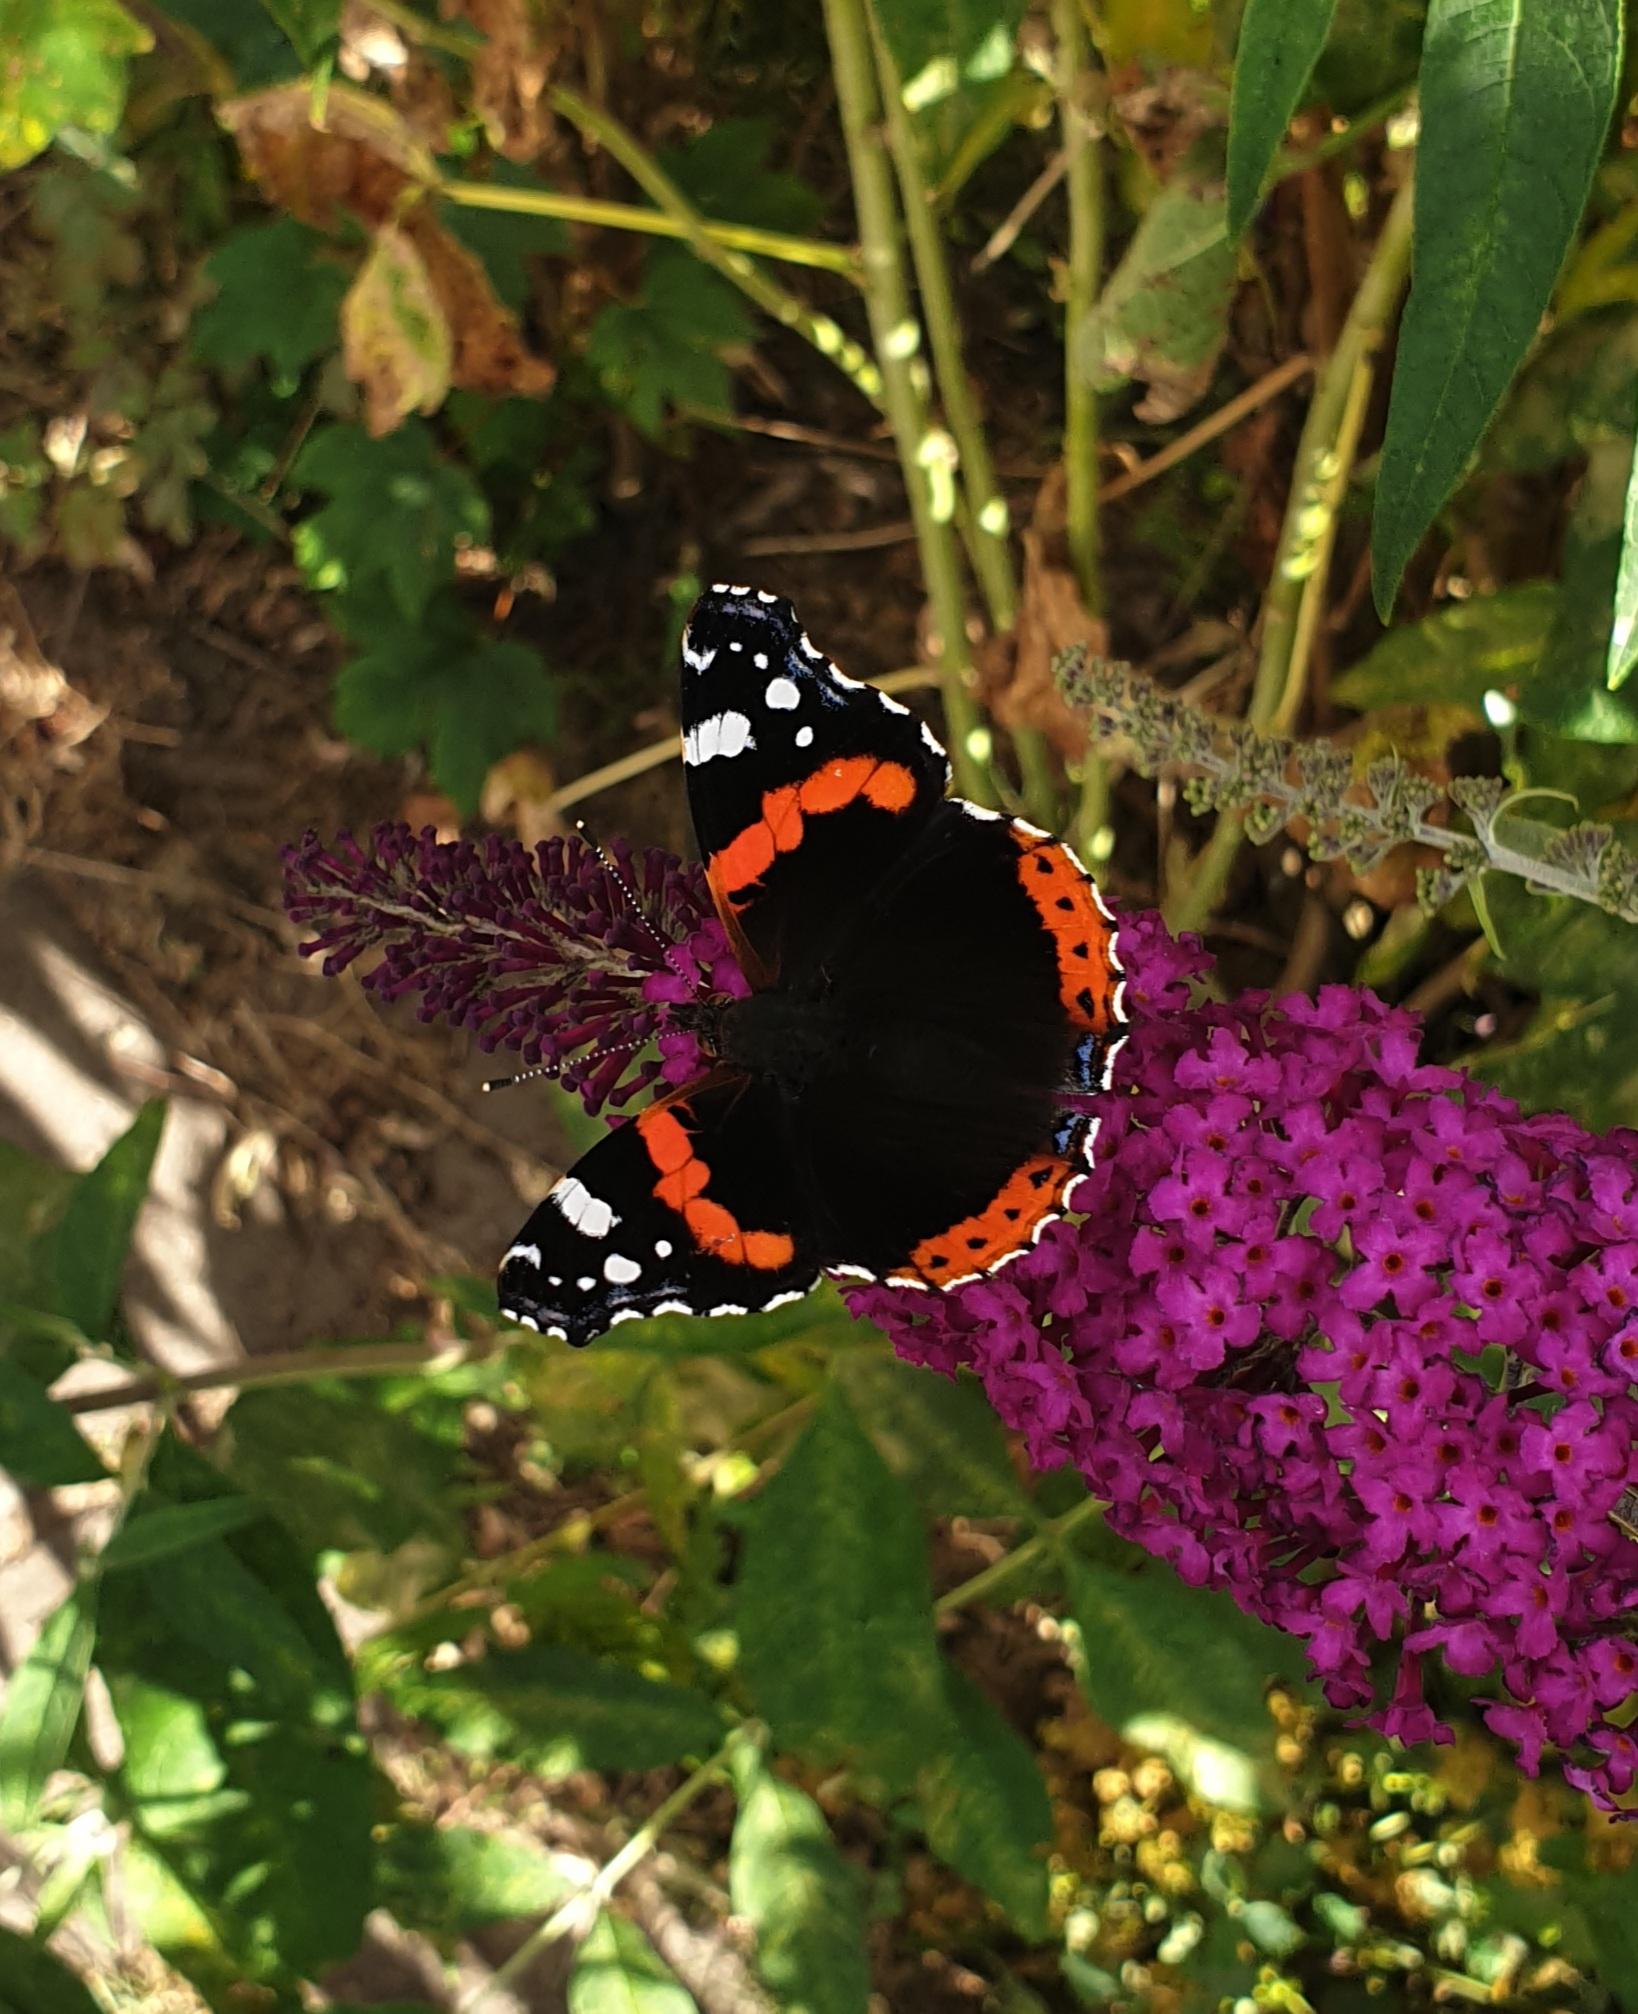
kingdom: Animalia
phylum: Arthropoda
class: Insecta
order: Lepidoptera
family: Nymphalidae
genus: Vanessa
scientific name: Vanessa atalanta
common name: Admiral
